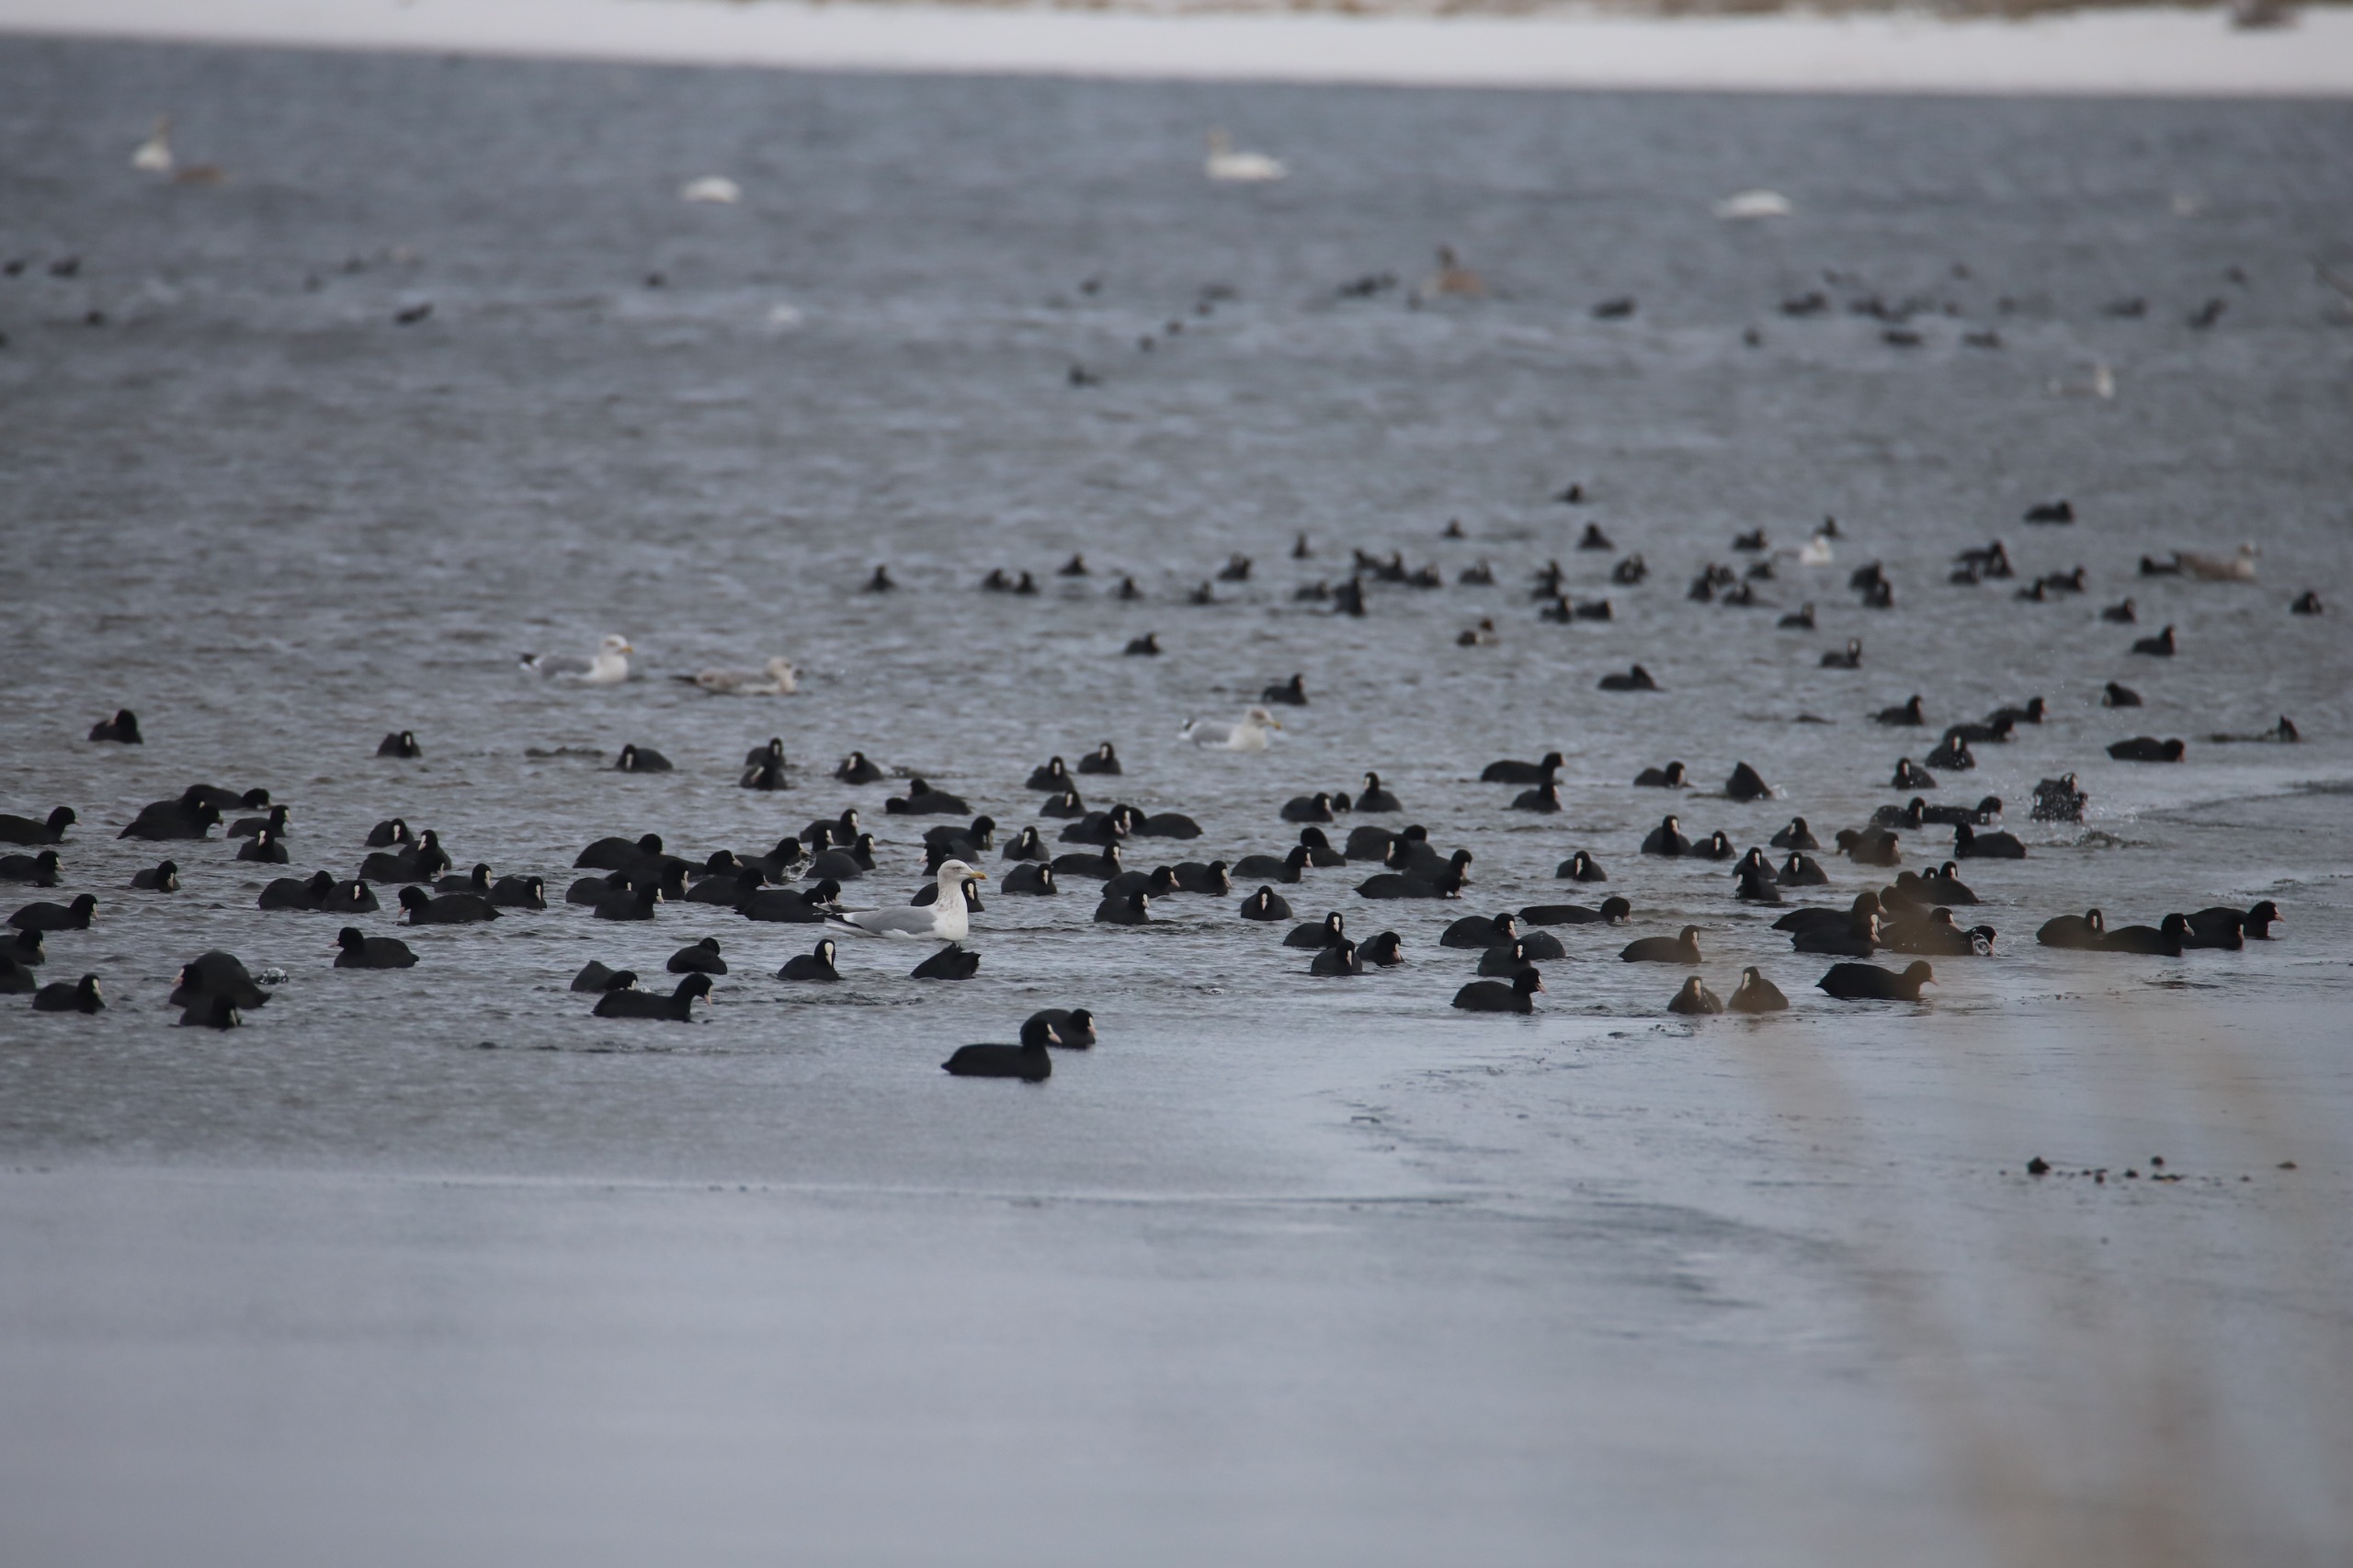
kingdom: Animalia
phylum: Chordata
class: Aves
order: Gruiformes
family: Rallidae
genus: Fulica
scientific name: Fulica atra
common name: Blishøne
